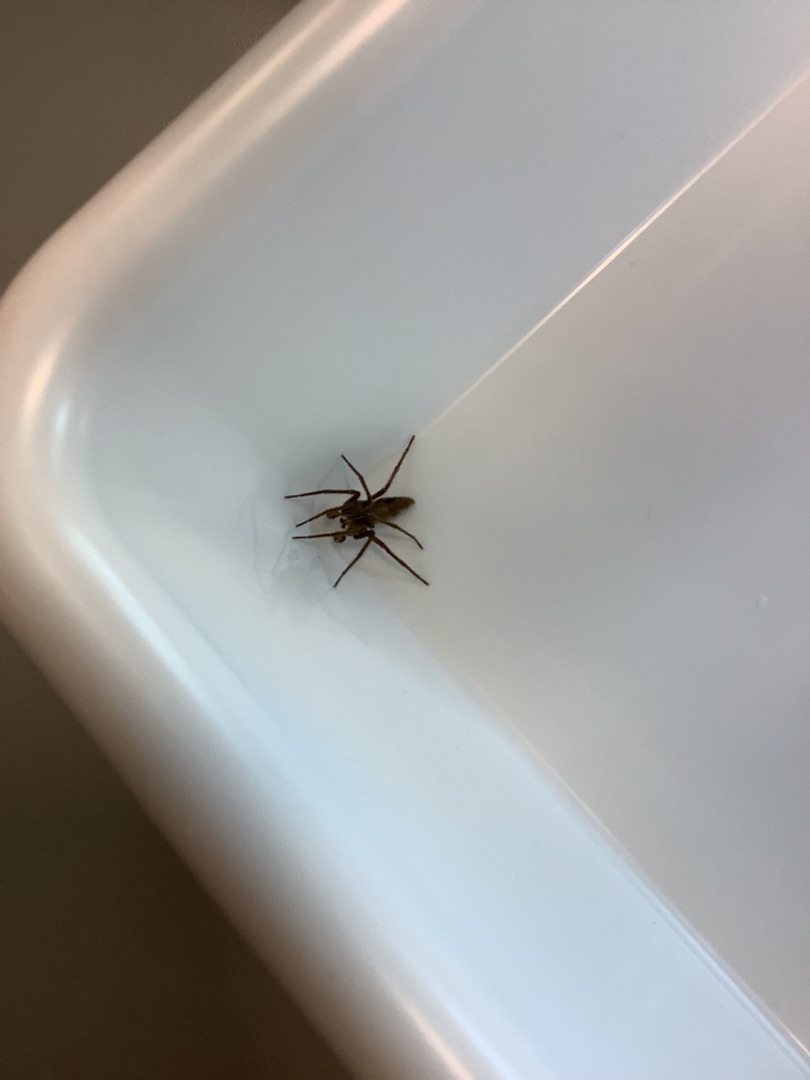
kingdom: Animalia
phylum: Arthropoda
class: Arachnida
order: Araneae
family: Pisauridae
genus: Pisaura
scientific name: Pisaura mirabilis
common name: Almindelig rovedderkop
